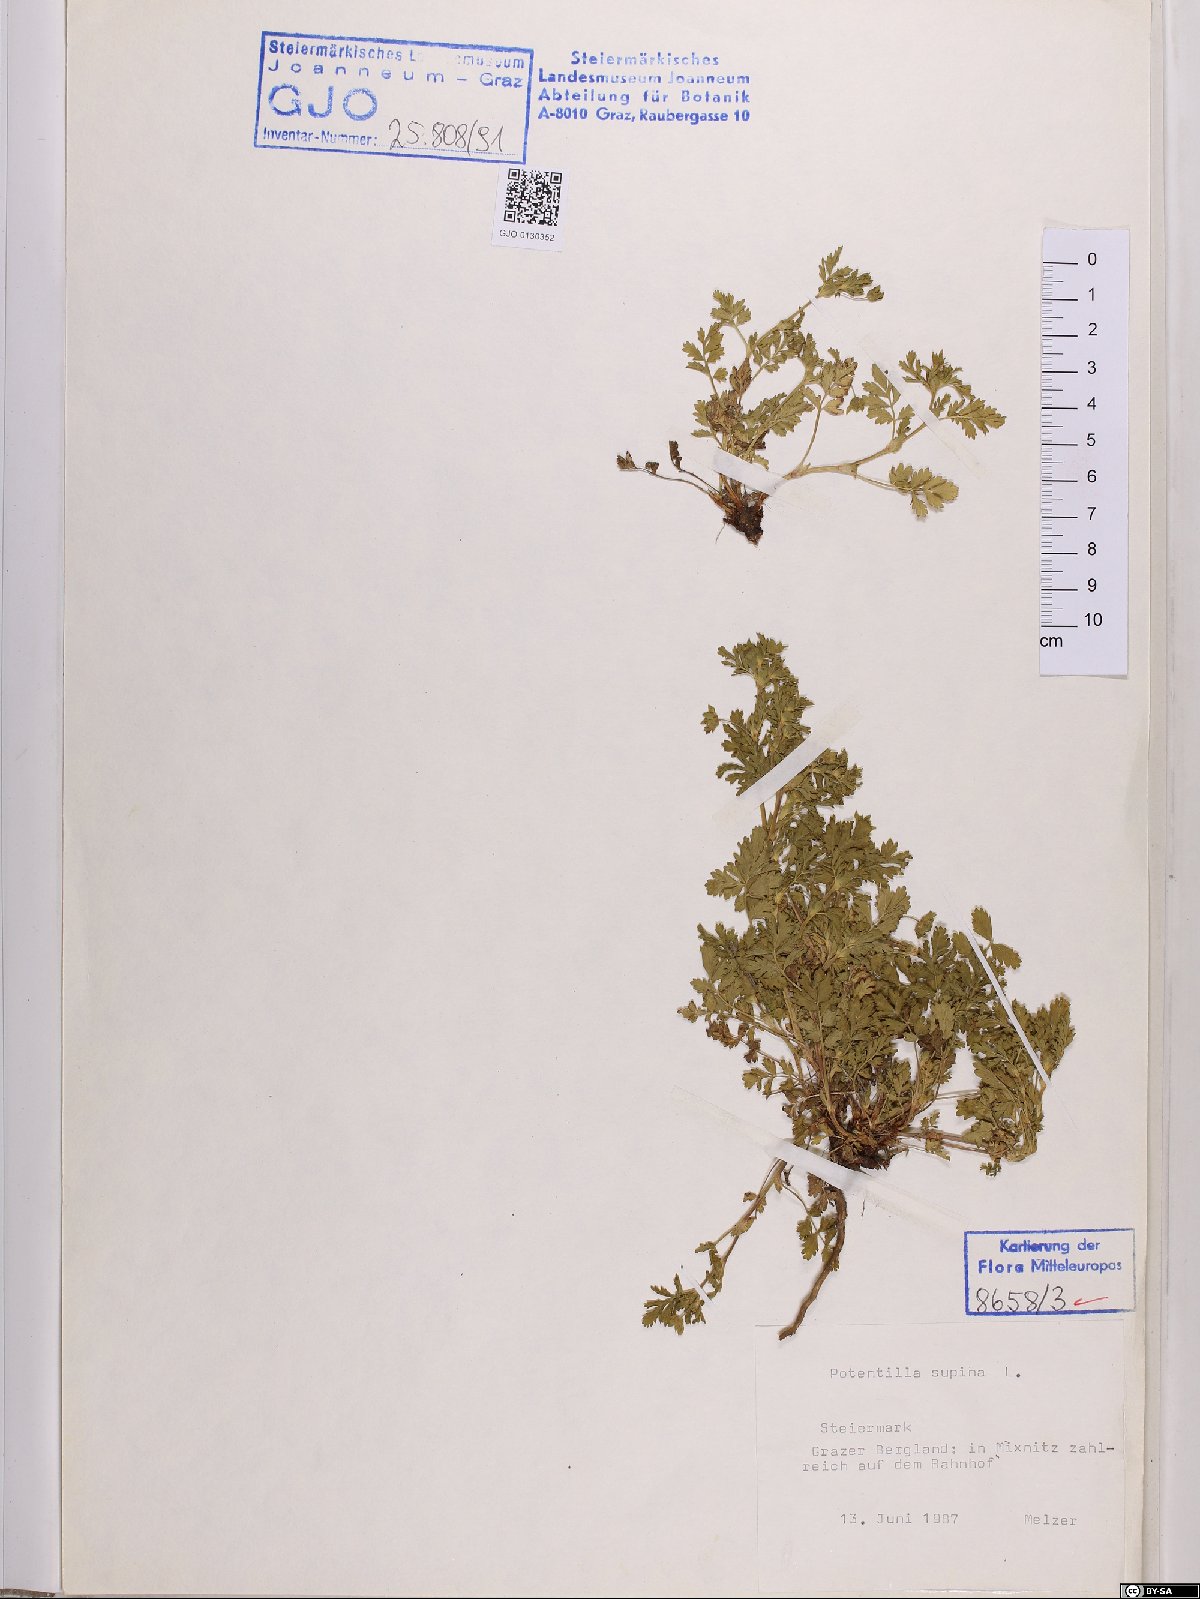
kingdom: Plantae
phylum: Tracheophyta
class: Magnoliopsida
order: Rosales
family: Rosaceae
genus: Potentilla
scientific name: Potentilla supina
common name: Prostrate cinquefoil
